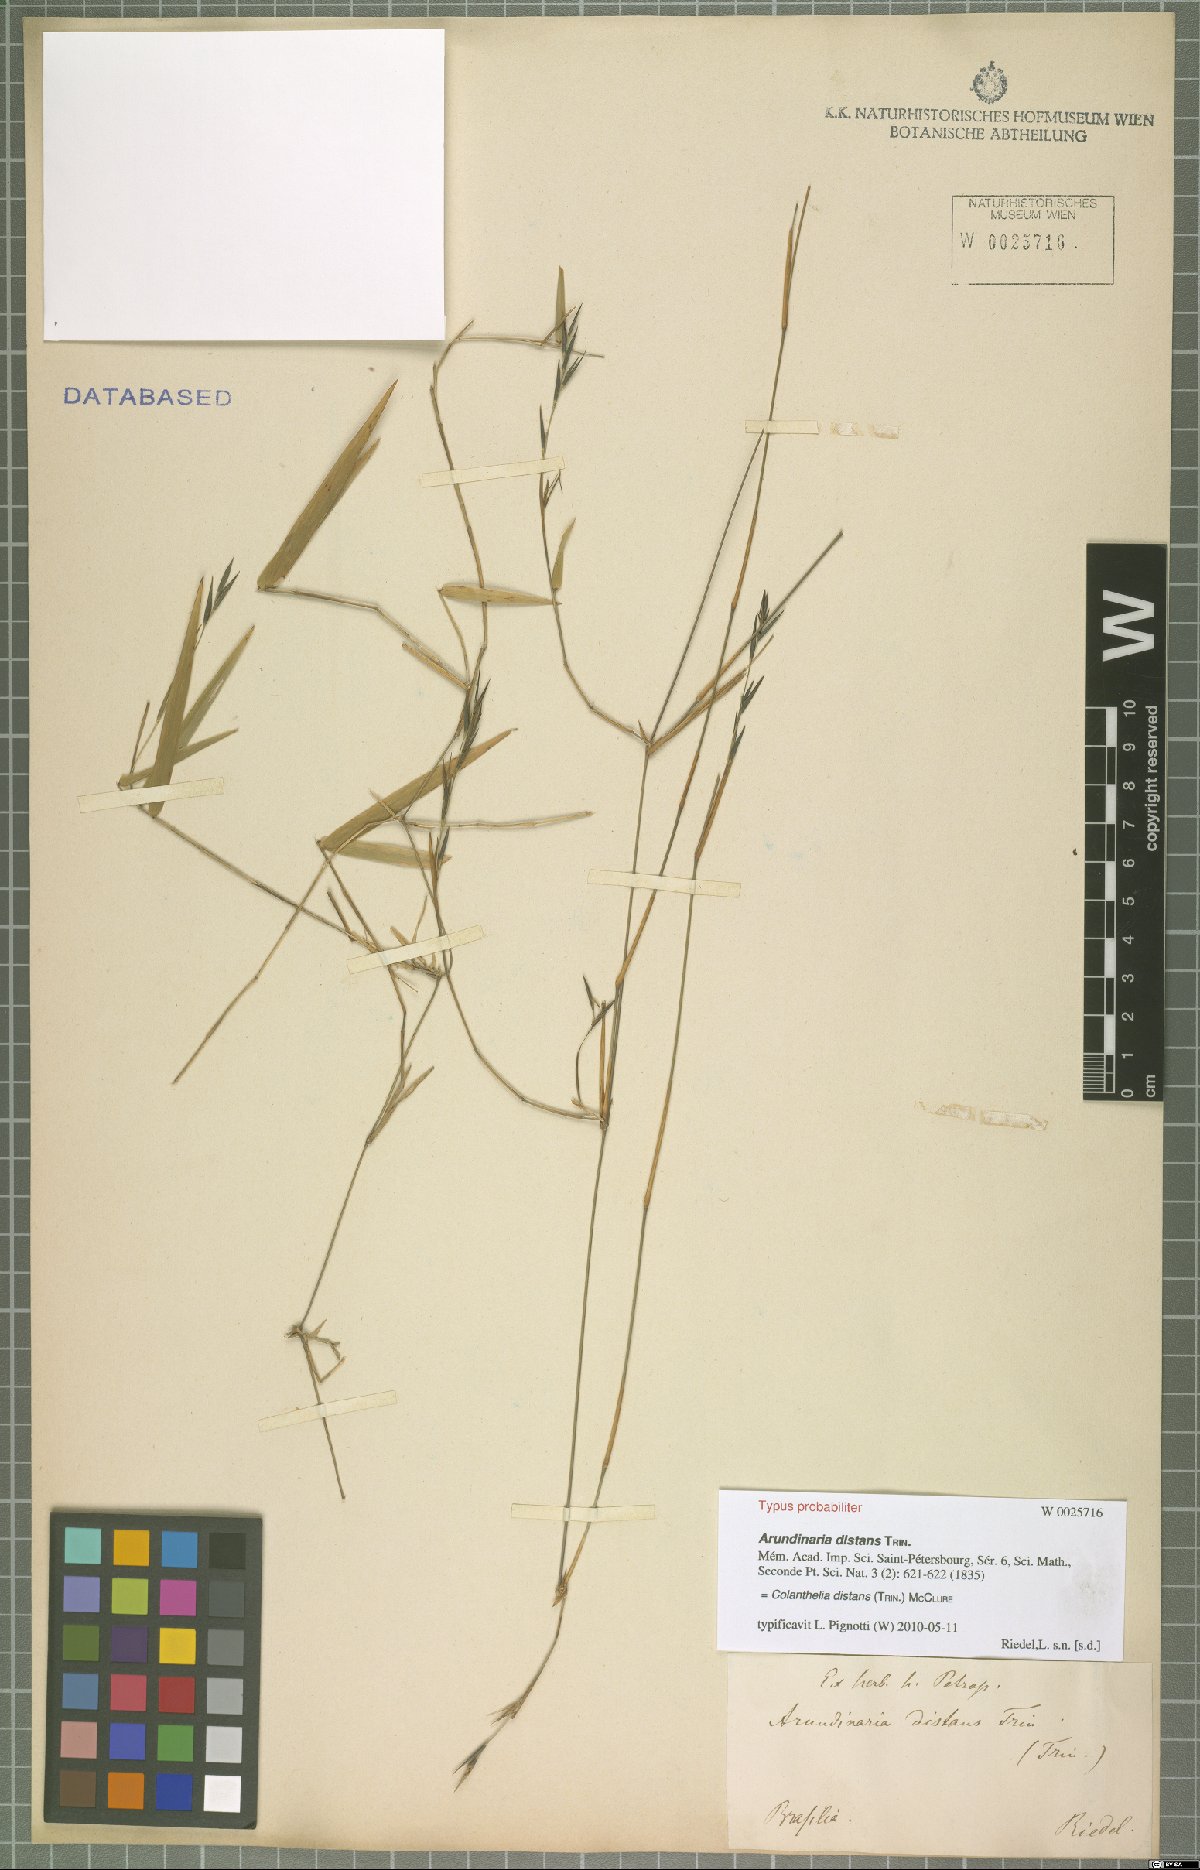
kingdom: Plantae
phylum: Tracheophyta
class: Liliopsida
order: Poales
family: Poaceae
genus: Colanthelia
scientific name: Colanthelia distans
